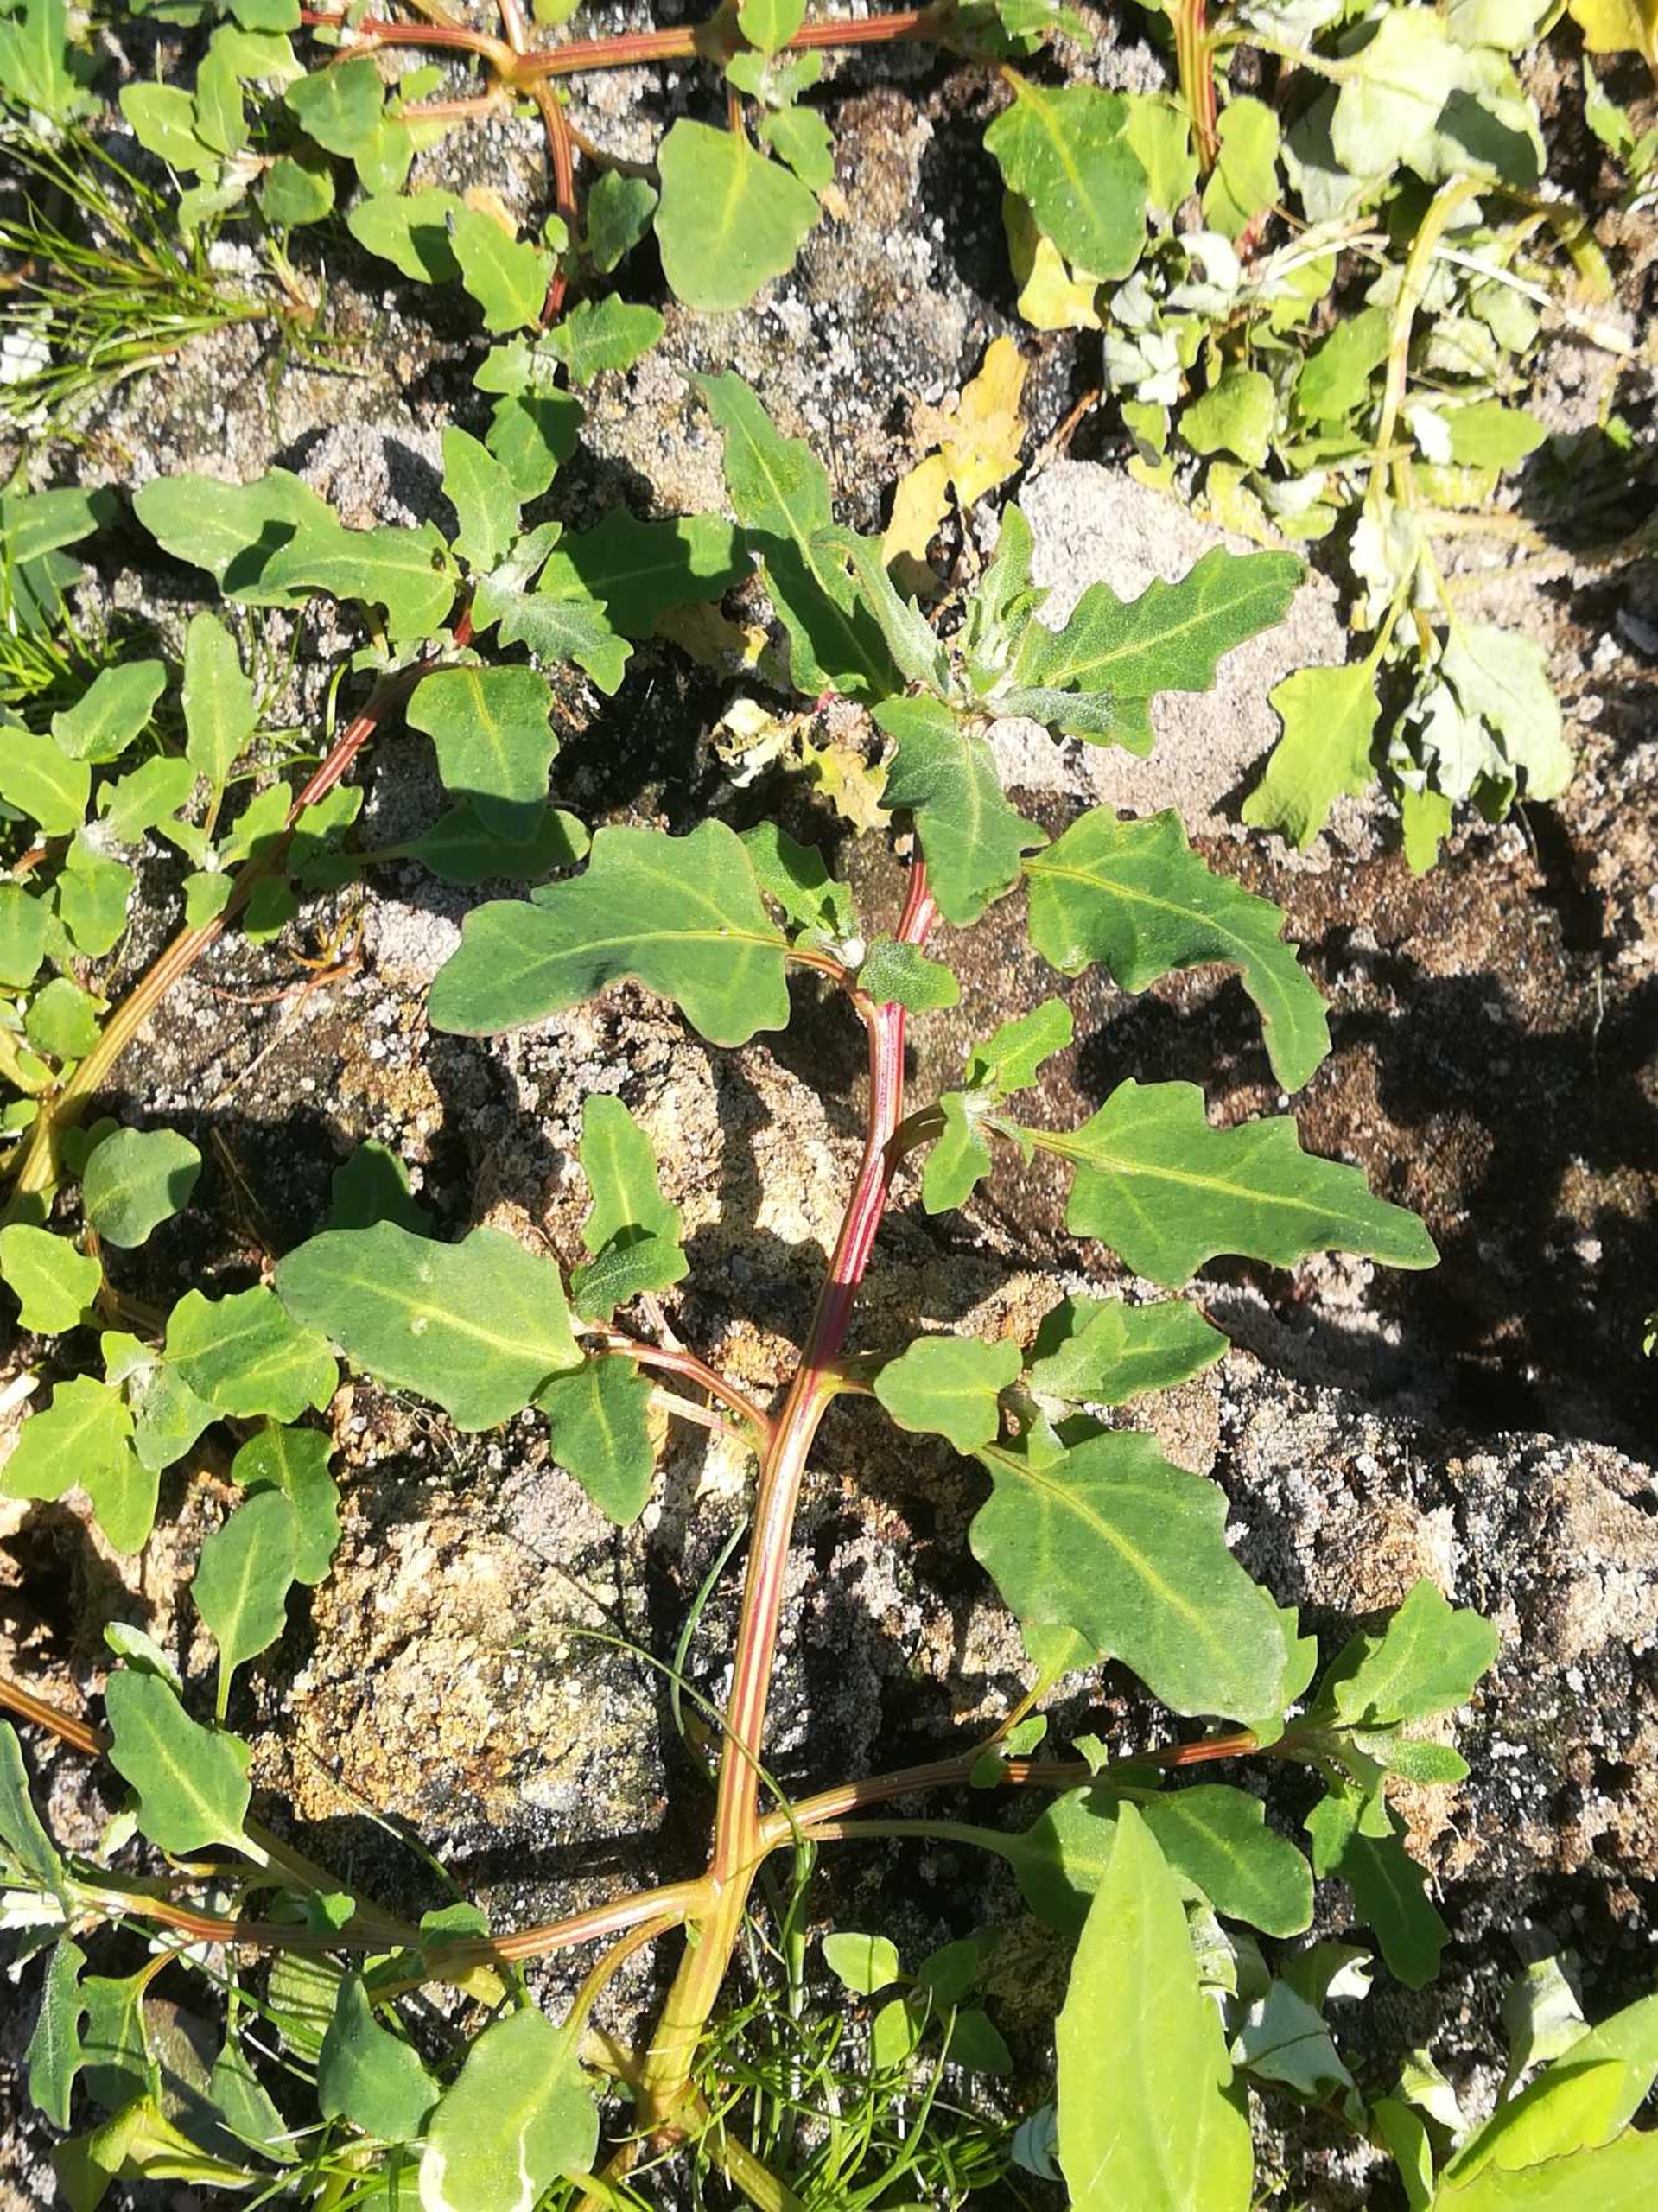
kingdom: Plantae
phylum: Tracheophyta
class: Magnoliopsida
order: Caryophyllales
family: Amaranthaceae
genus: Oxybasis
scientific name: Oxybasis glauca
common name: Blågrøn gåsefod
